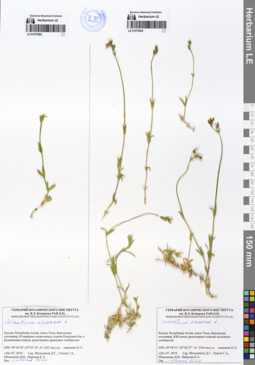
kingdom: Plantae
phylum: Tracheophyta
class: Magnoliopsida
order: Caryophyllales
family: Caryophyllaceae
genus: Cerastium
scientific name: Cerastium arvense
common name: Field mouse-ear
